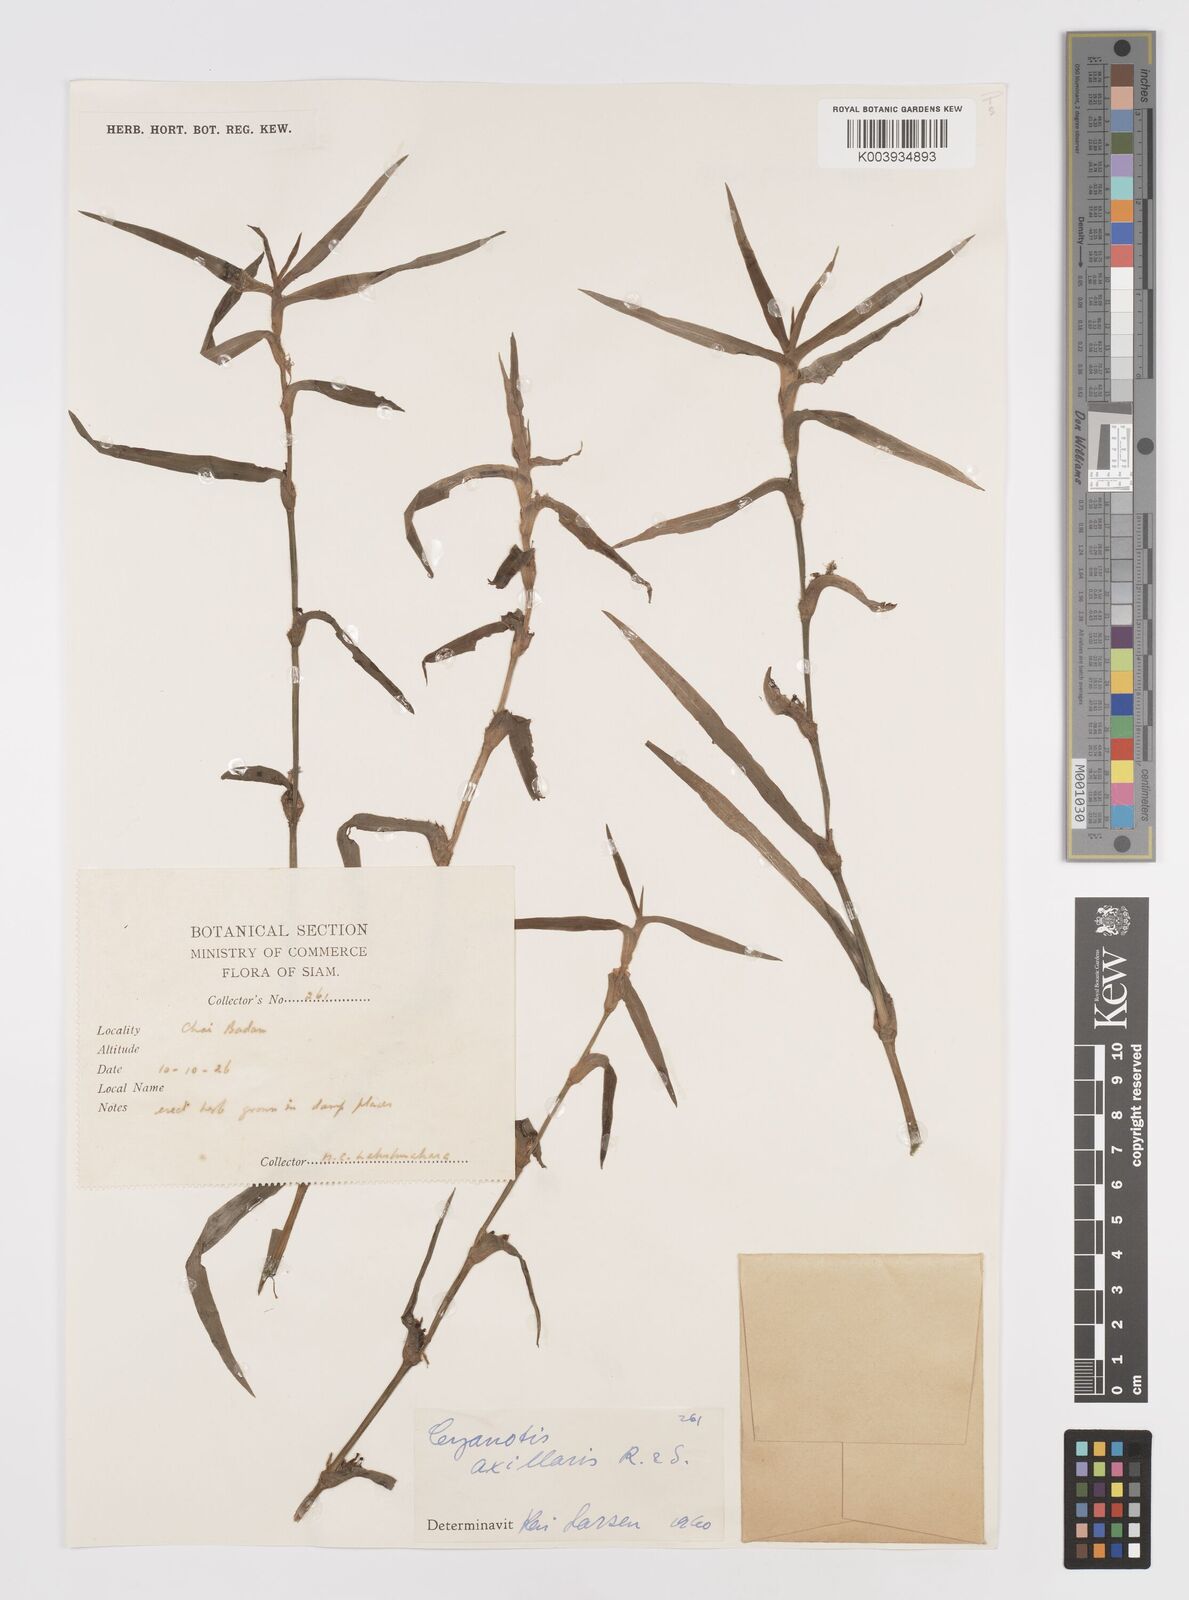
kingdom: Plantae
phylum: Tracheophyta
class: Liliopsida
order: Commelinales
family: Commelinaceae
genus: Cyanotis
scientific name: Cyanotis axillaris
